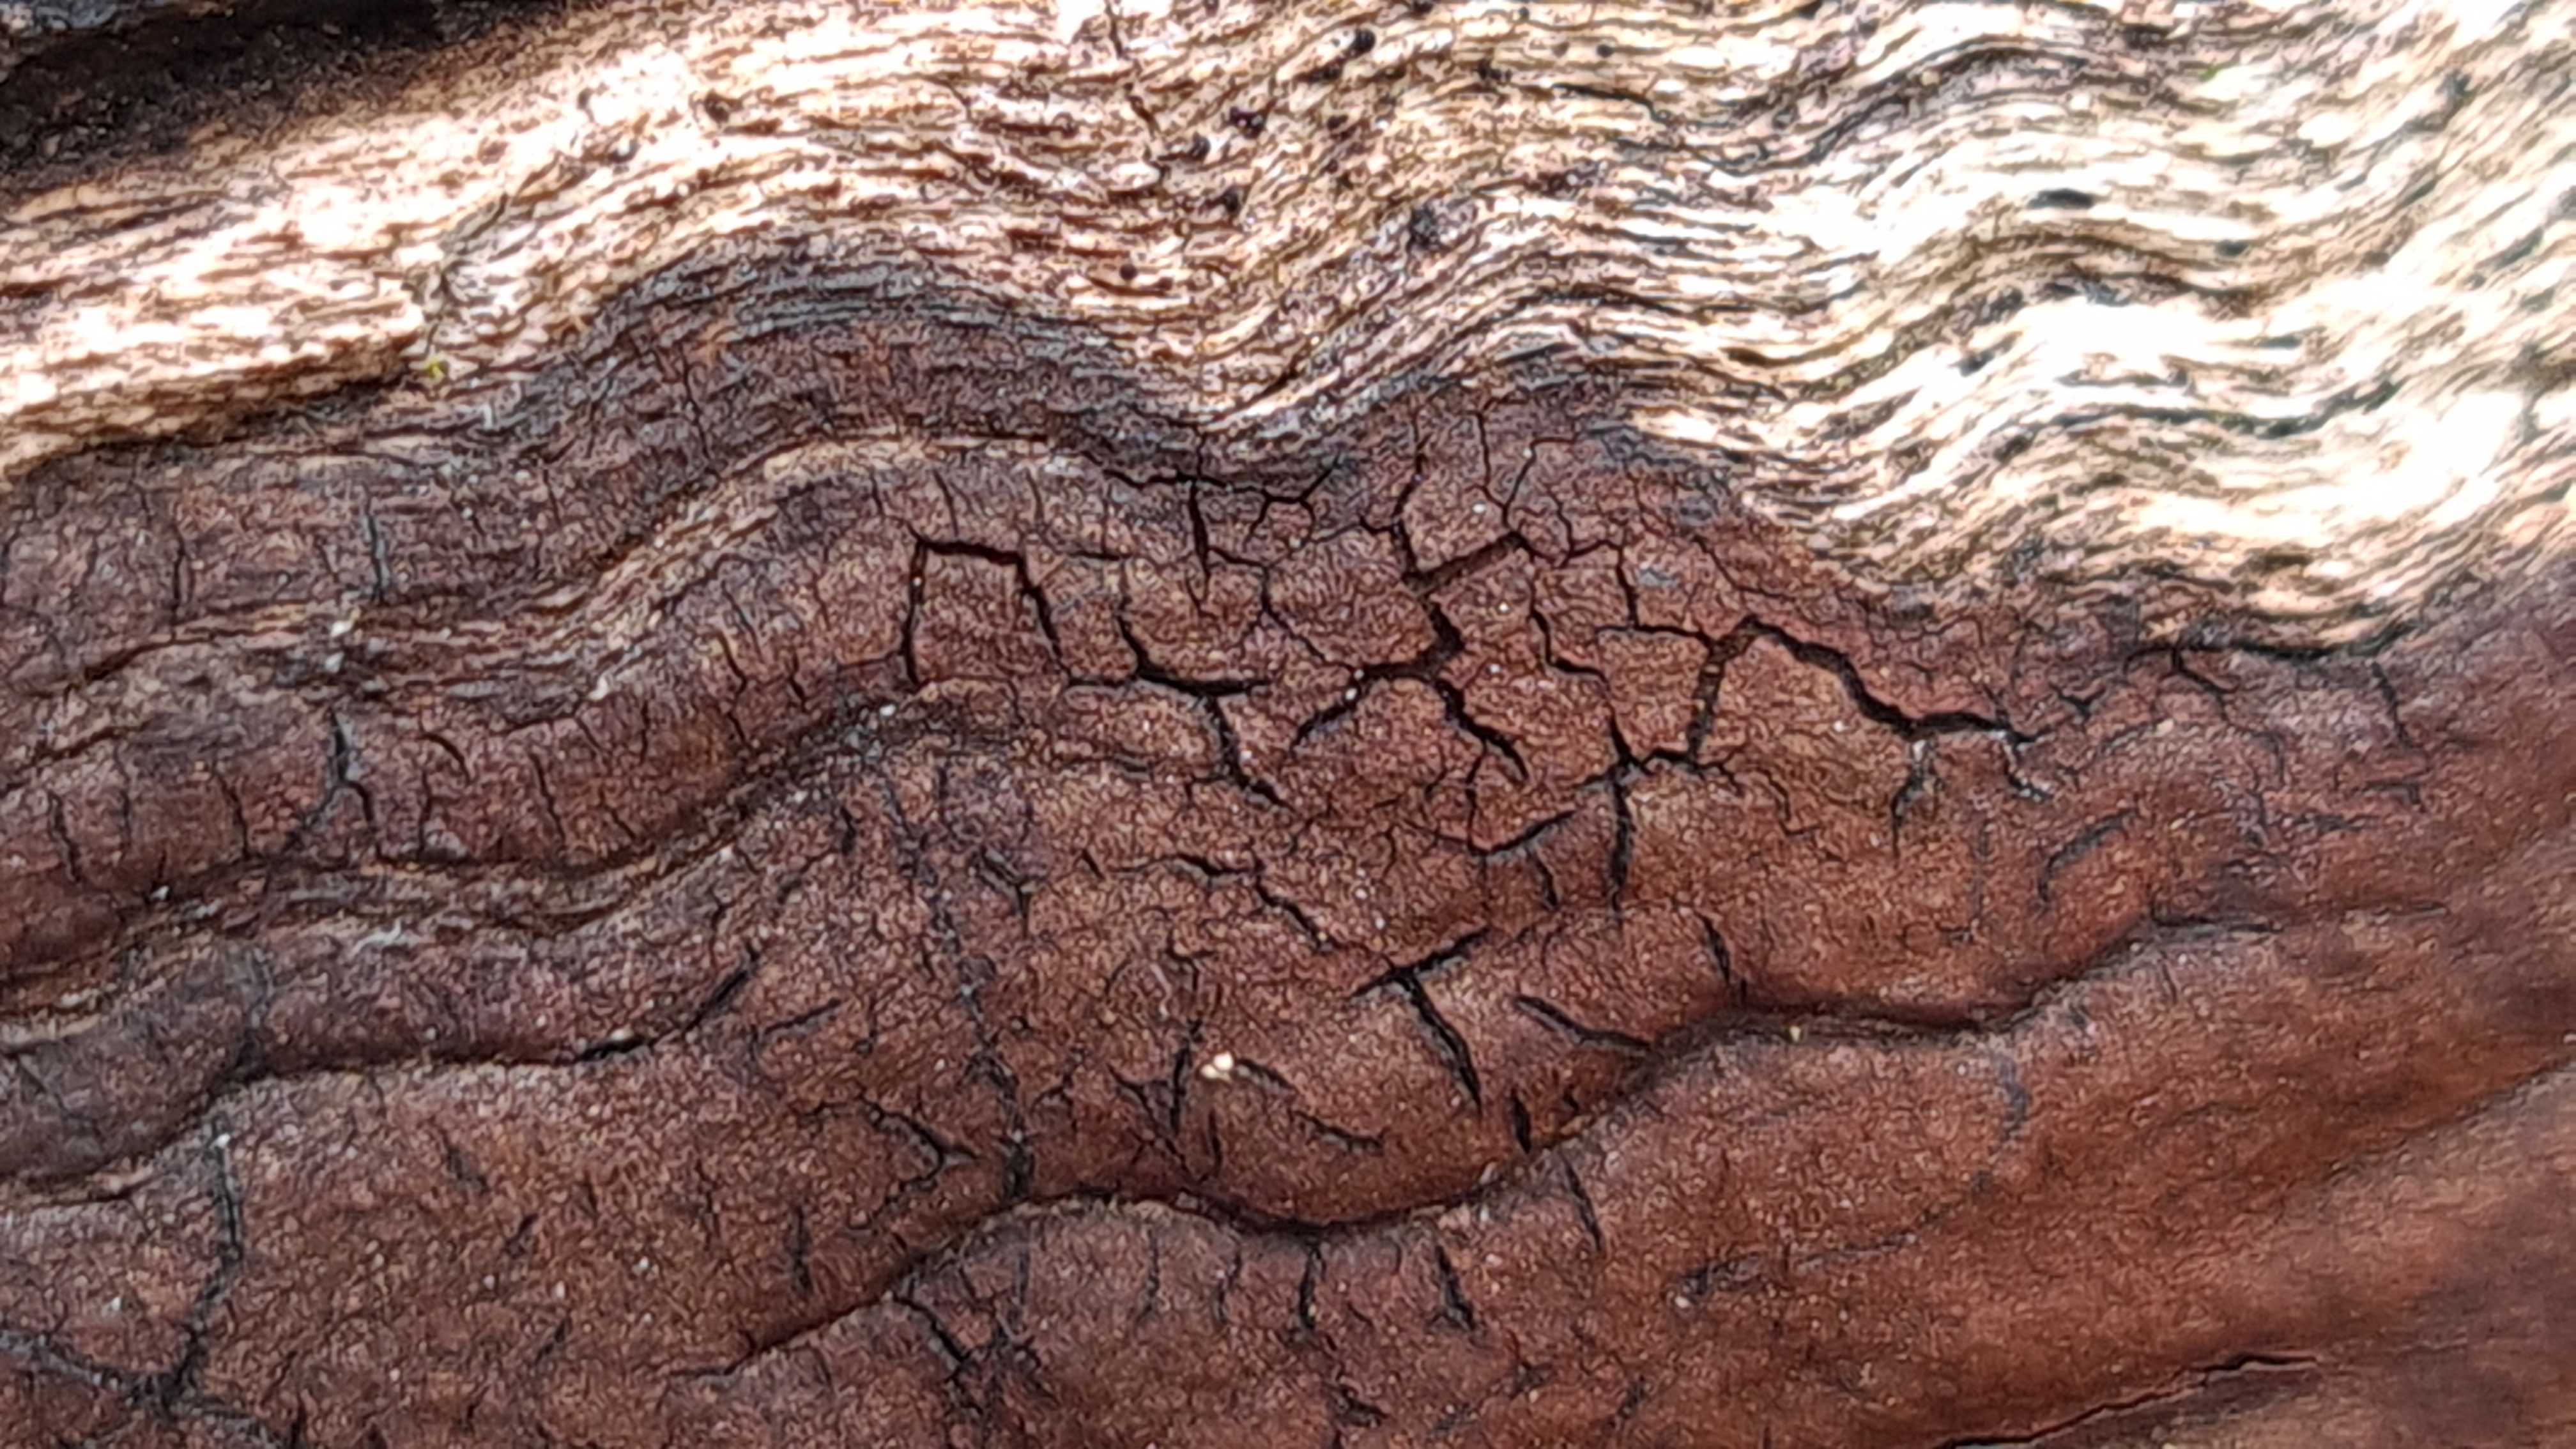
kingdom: Fungi
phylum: Ascomycota
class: Sordariomycetes
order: Xylariales
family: Hypoxylaceae
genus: Hypoxylon
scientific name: Hypoxylon
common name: kulbær
